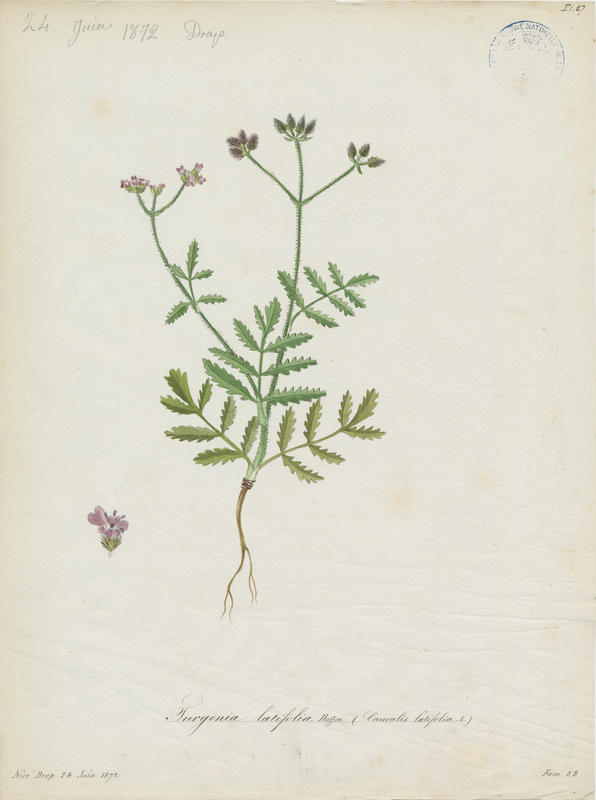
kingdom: Plantae
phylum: Tracheophyta
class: Magnoliopsida
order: Apiales
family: Apiaceae
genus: Turgenia
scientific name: Turgenia latifolia
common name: Greater bur-parsley
